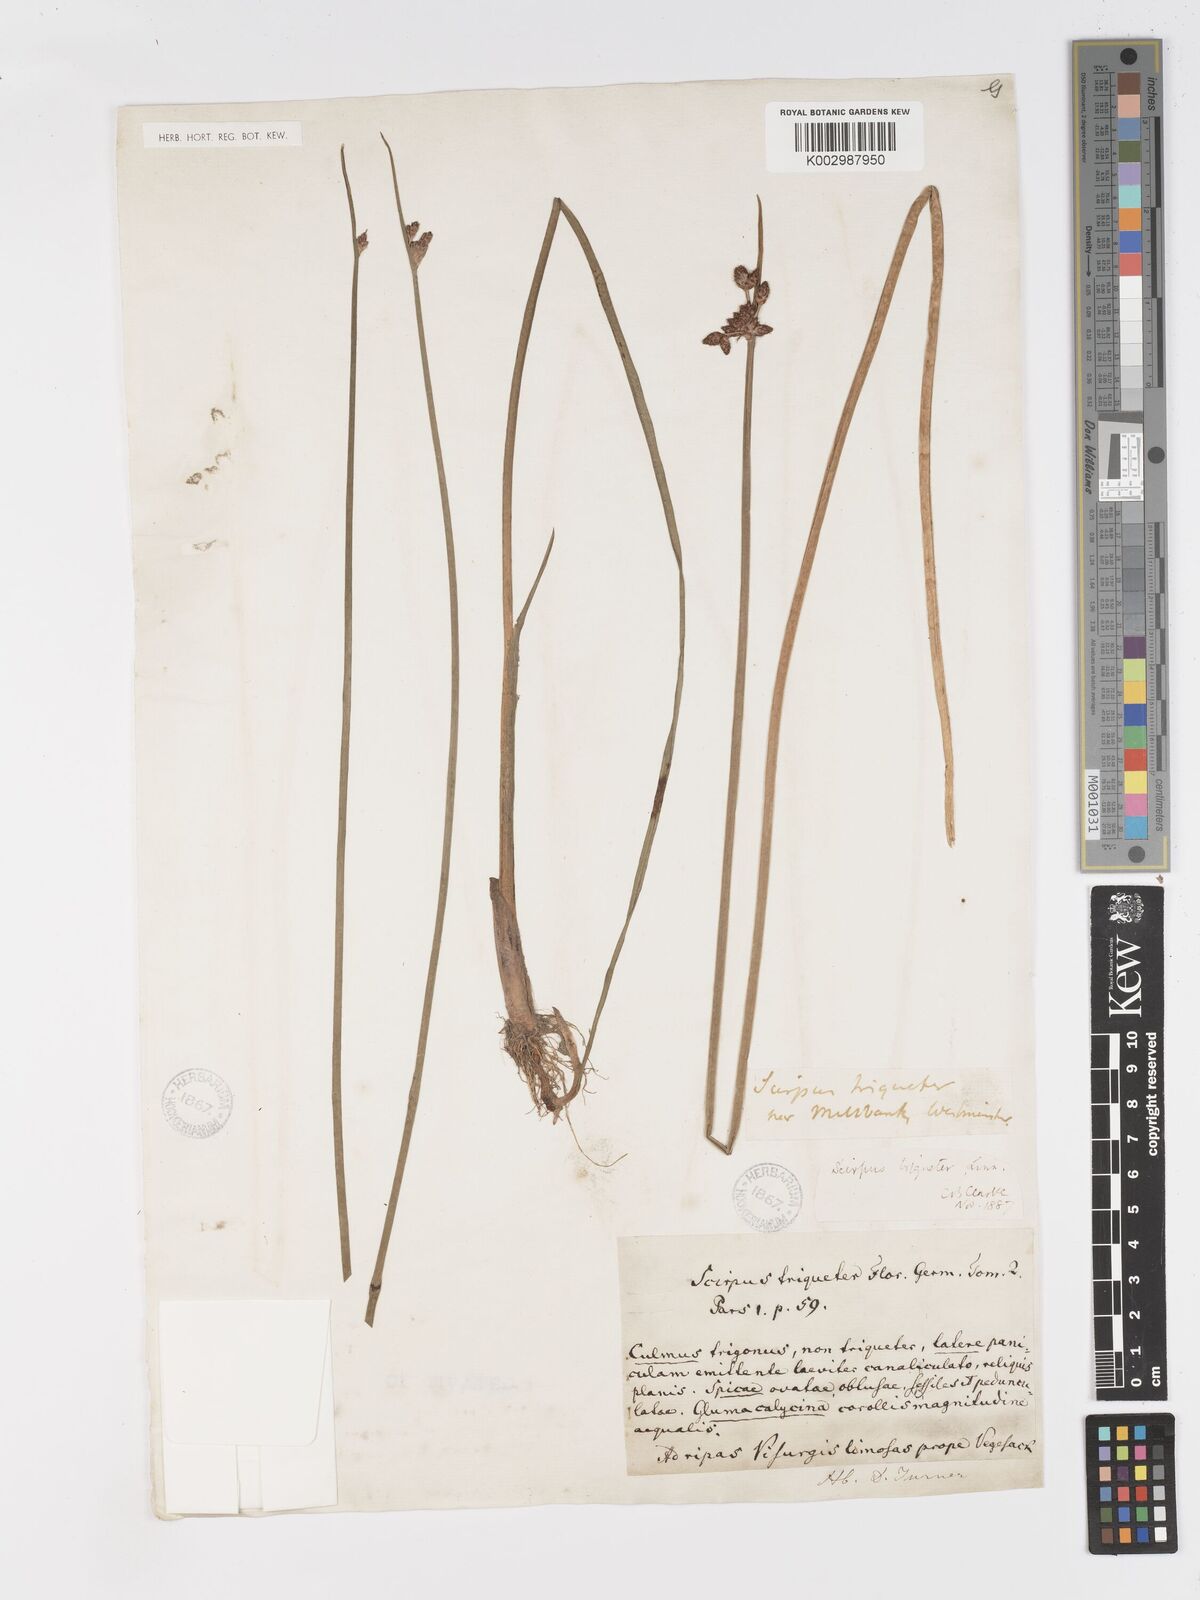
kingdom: Plantae
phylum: Tracheophyta
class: Liliopsida
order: Poales
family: Cyperaceae
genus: Schoenoplectus
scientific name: Schoenoplectus triqueter
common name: Triangular club-rush
